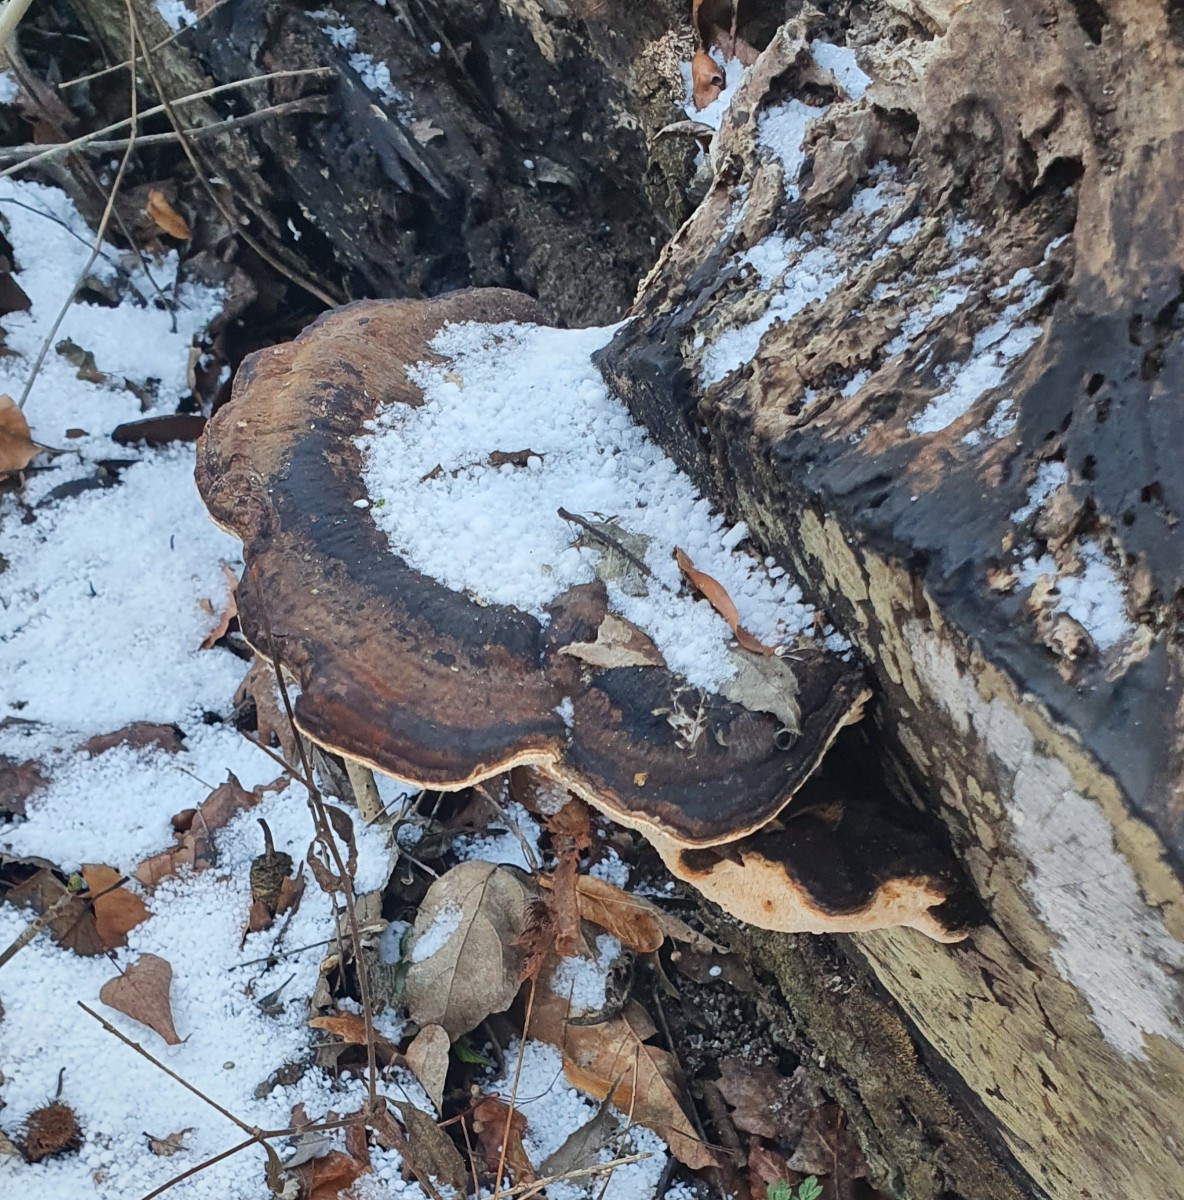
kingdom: Fungi
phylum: Basidiomycota
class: Agaricomycetes
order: Polyporales
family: Ischnodermataceae
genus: Ischnoderma
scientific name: Ischnoderma resinosum
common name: løv-tjæreporesvamp
